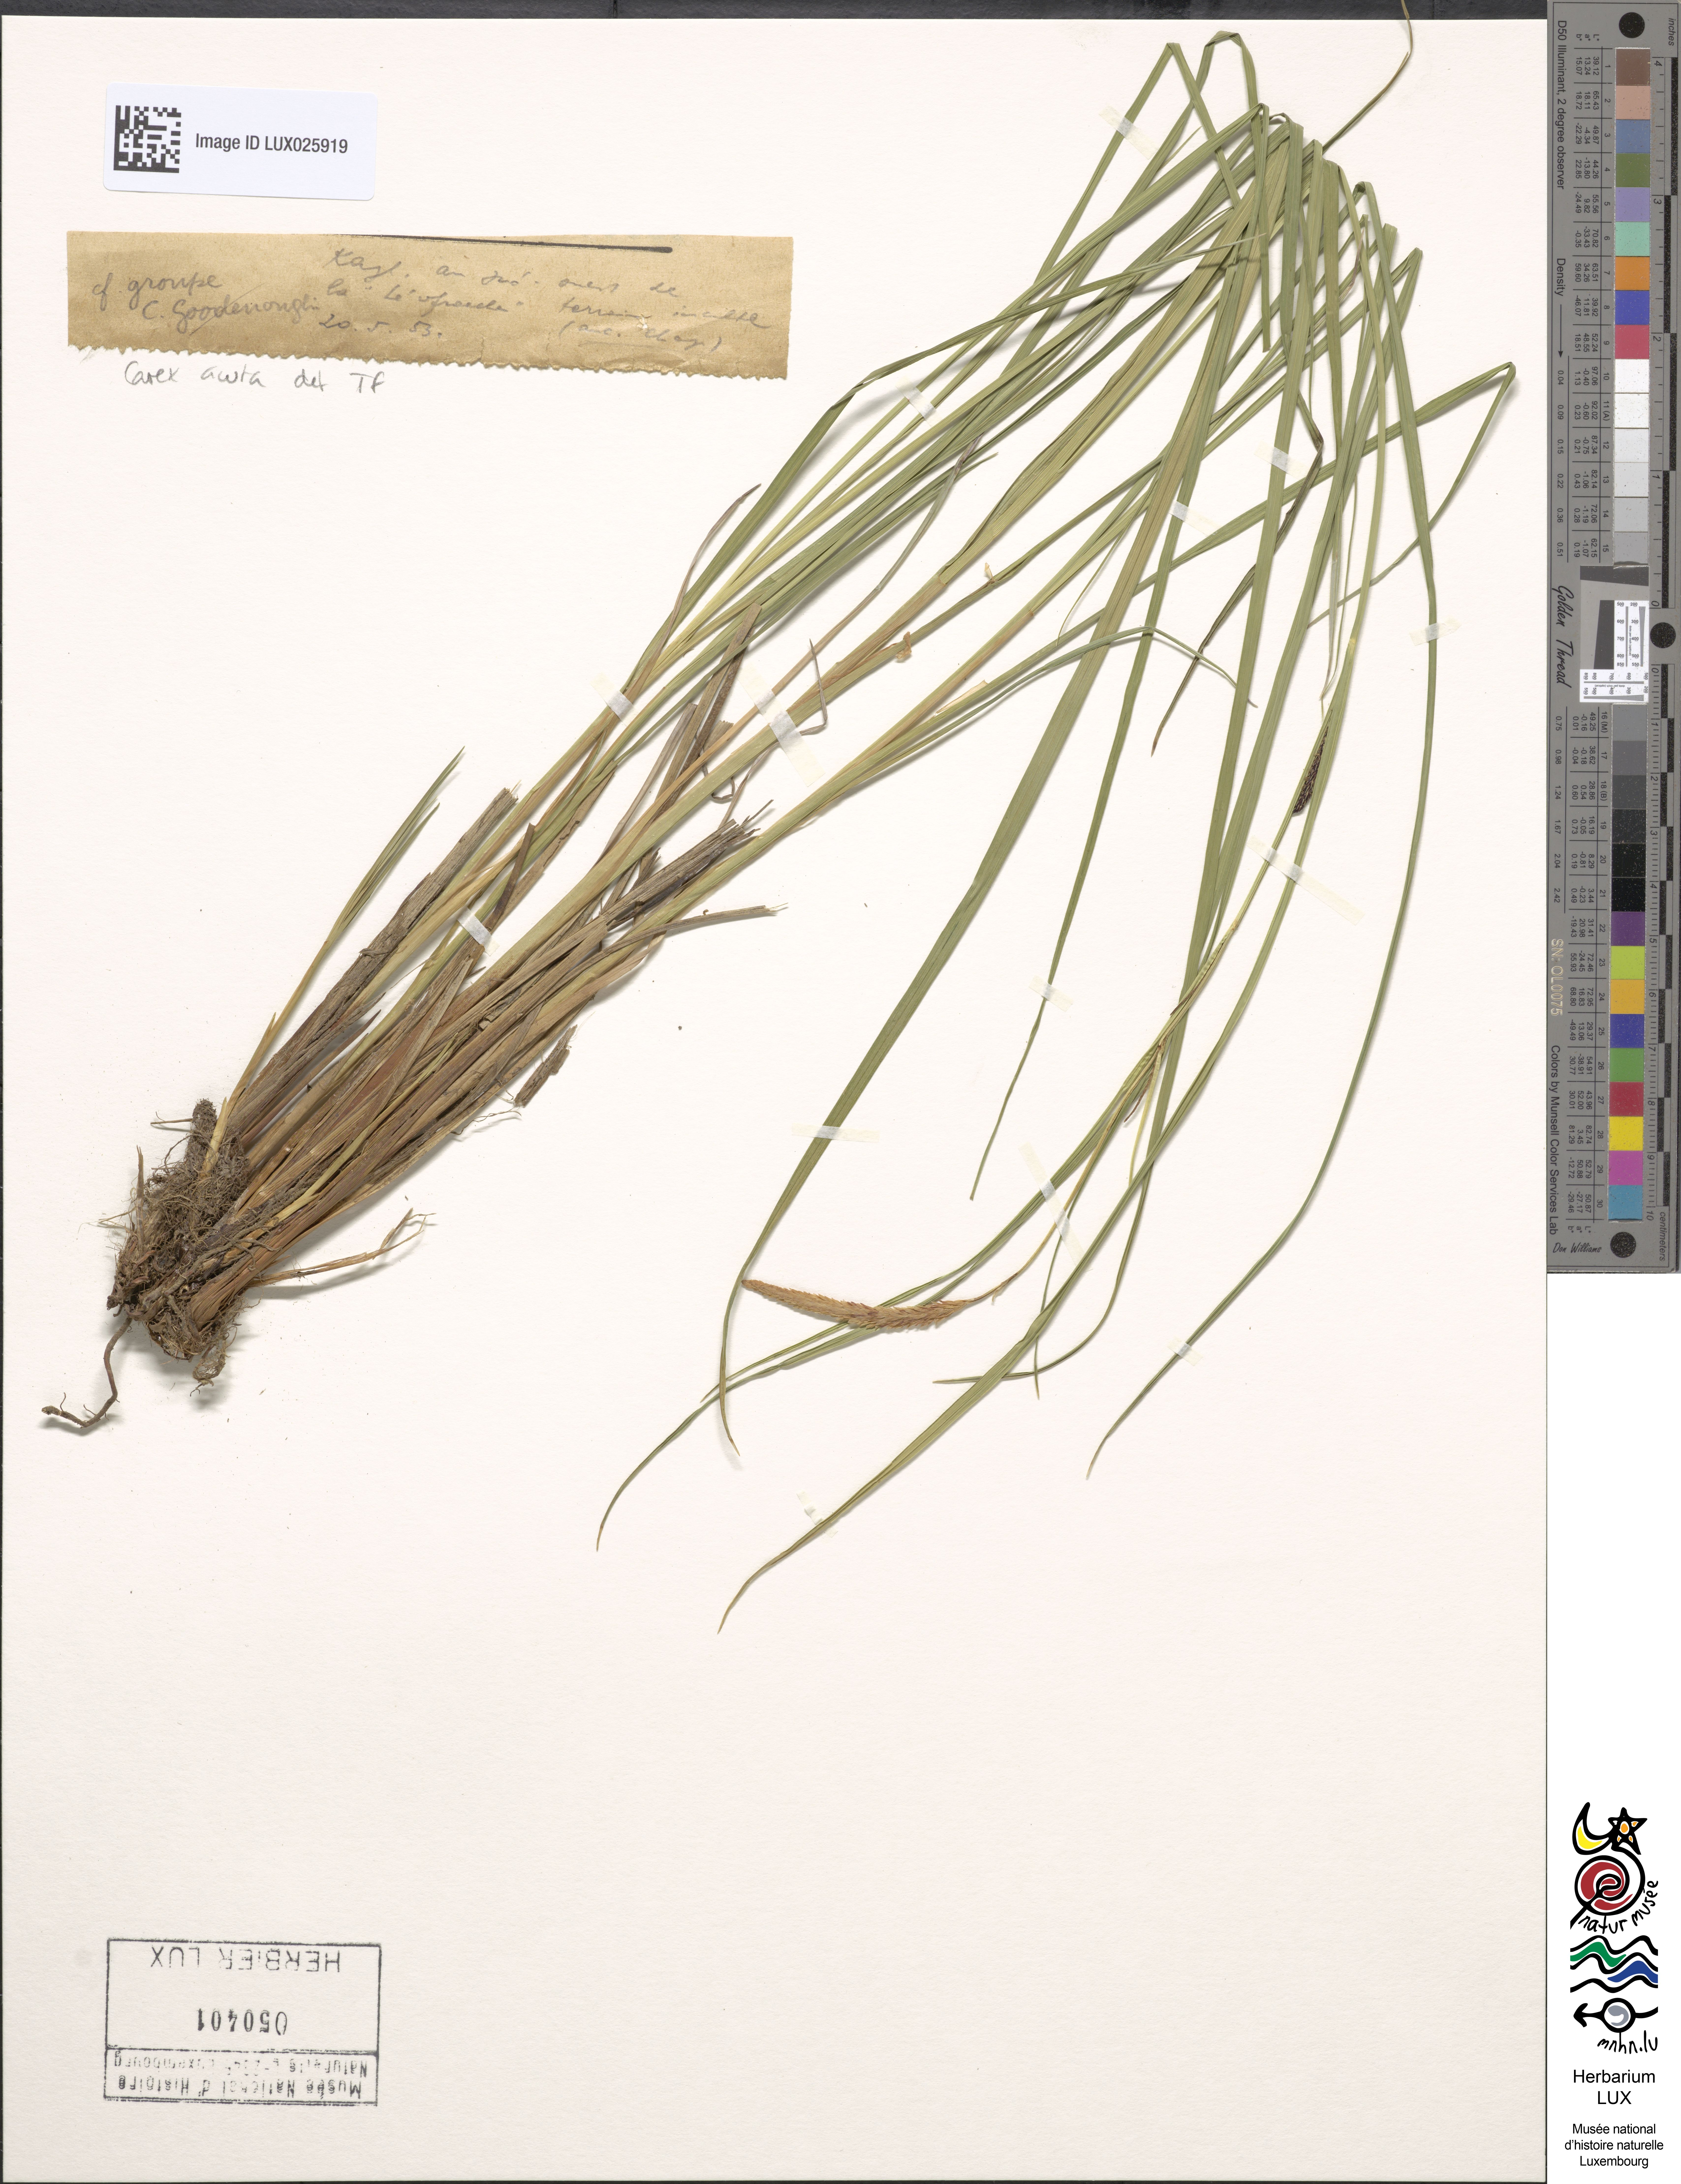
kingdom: Plantae
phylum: Tracheophyta
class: Liliopsida
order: Poales
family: Cyperaceae
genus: Carex
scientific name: Carex acuta
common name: Slender tufted-sedge
